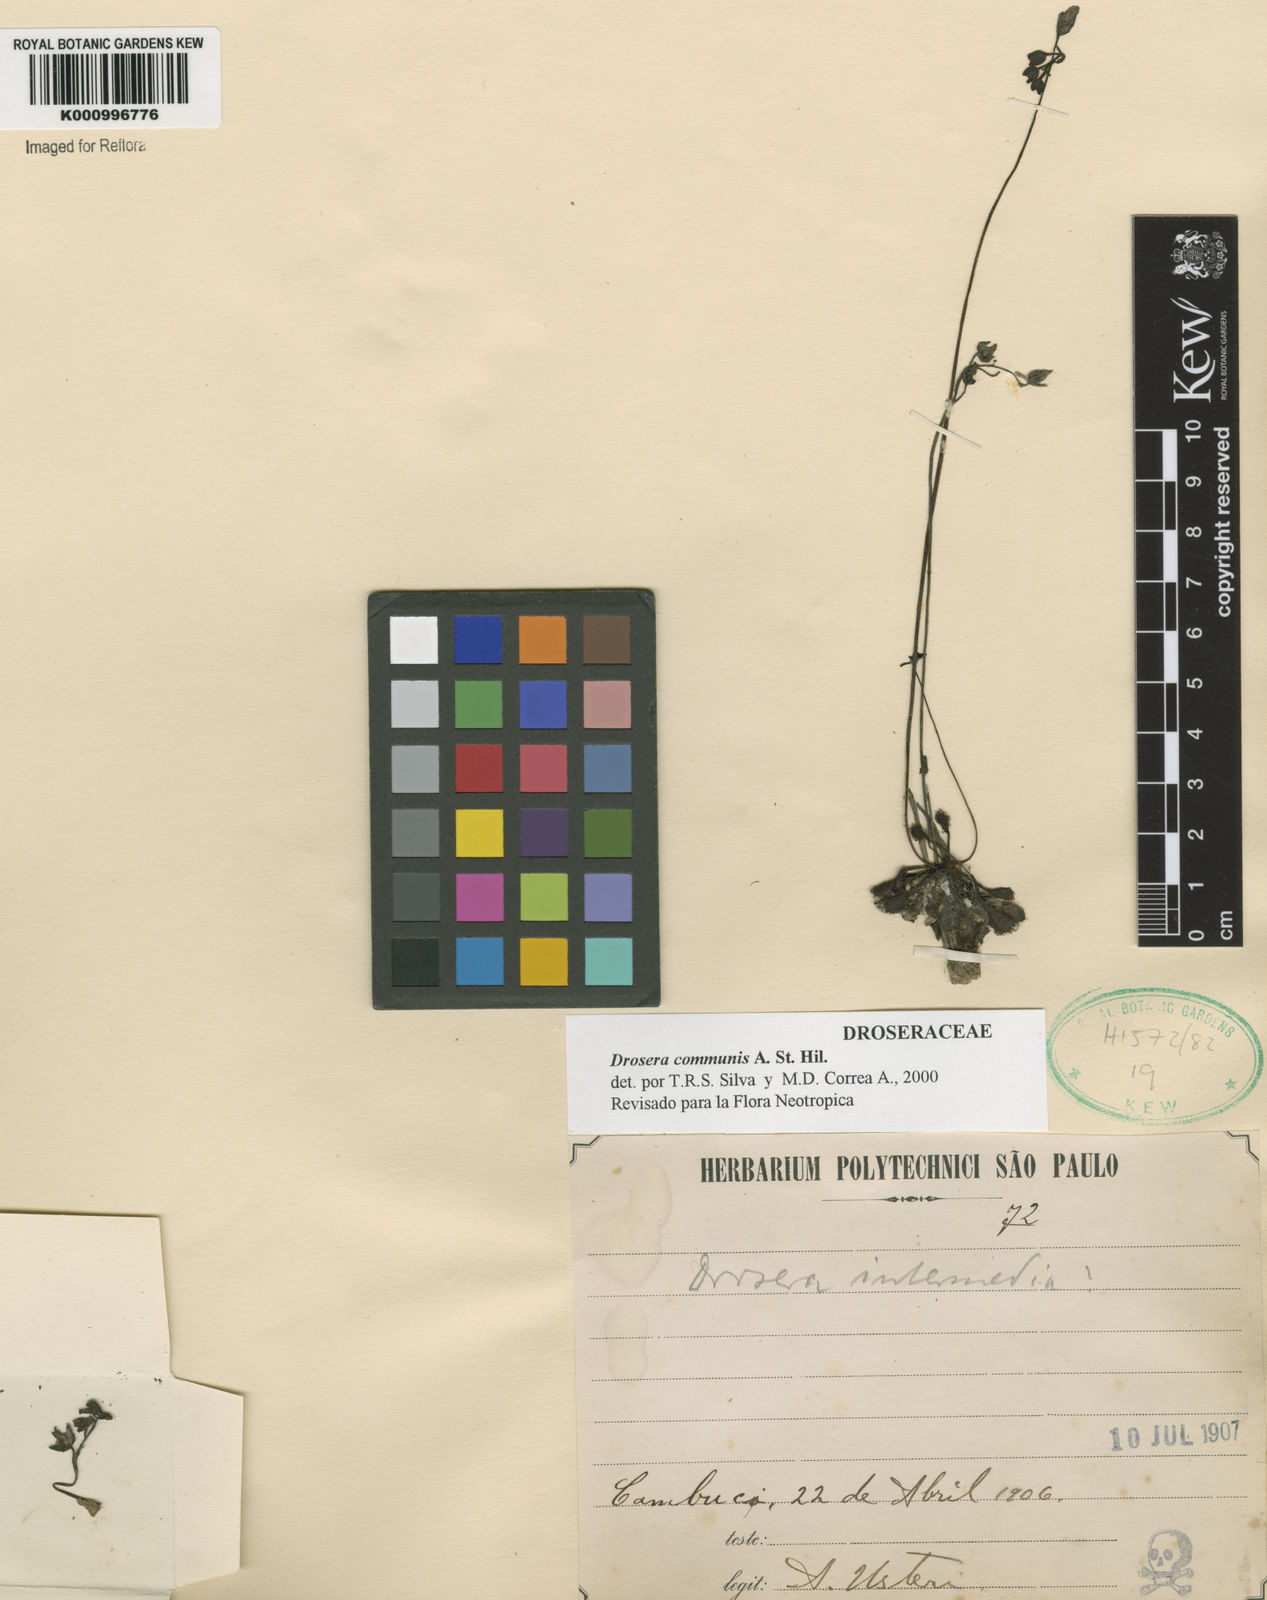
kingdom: Plantae
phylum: Tracheophyta
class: Magnoliopsida
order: Caryophyllales
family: Droseraceae
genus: Drosera
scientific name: Drosera communis
